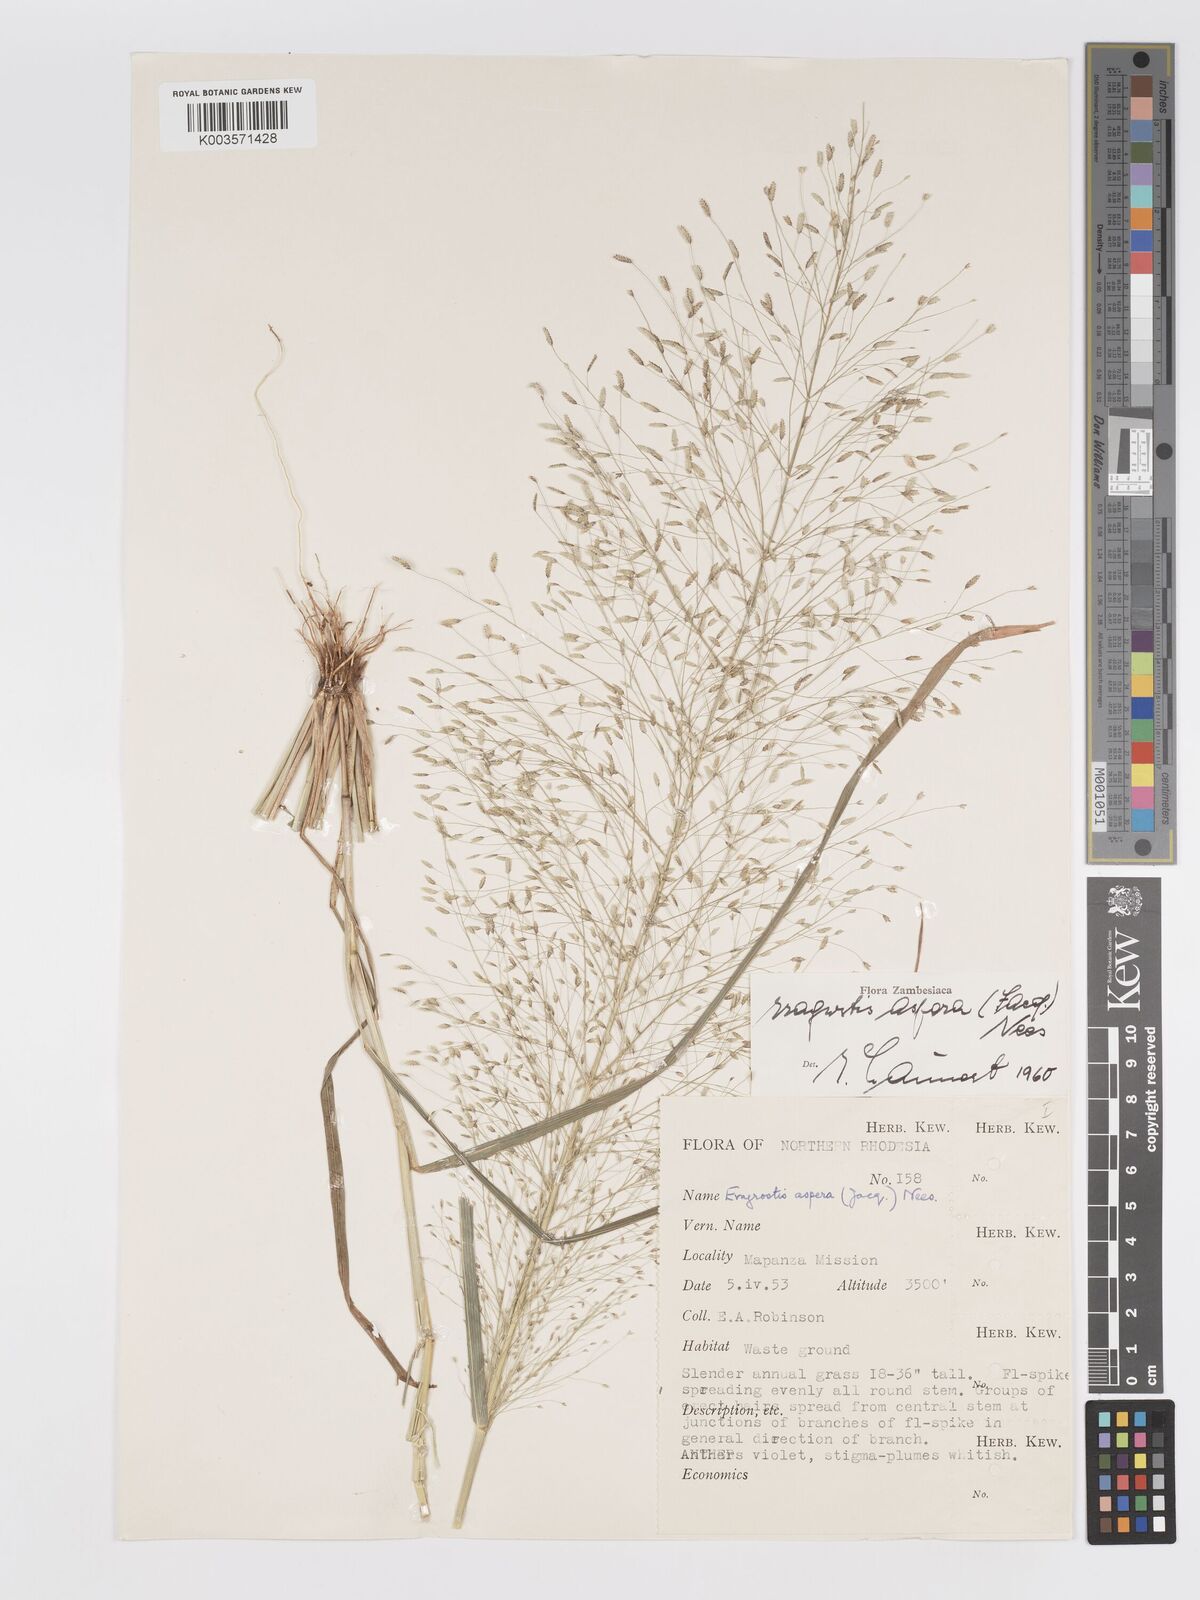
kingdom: Plantae
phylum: Tracheophyta
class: Liliopsida
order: Poales
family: Poaceae
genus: Eragrostis
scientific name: Eragrostis aspera
